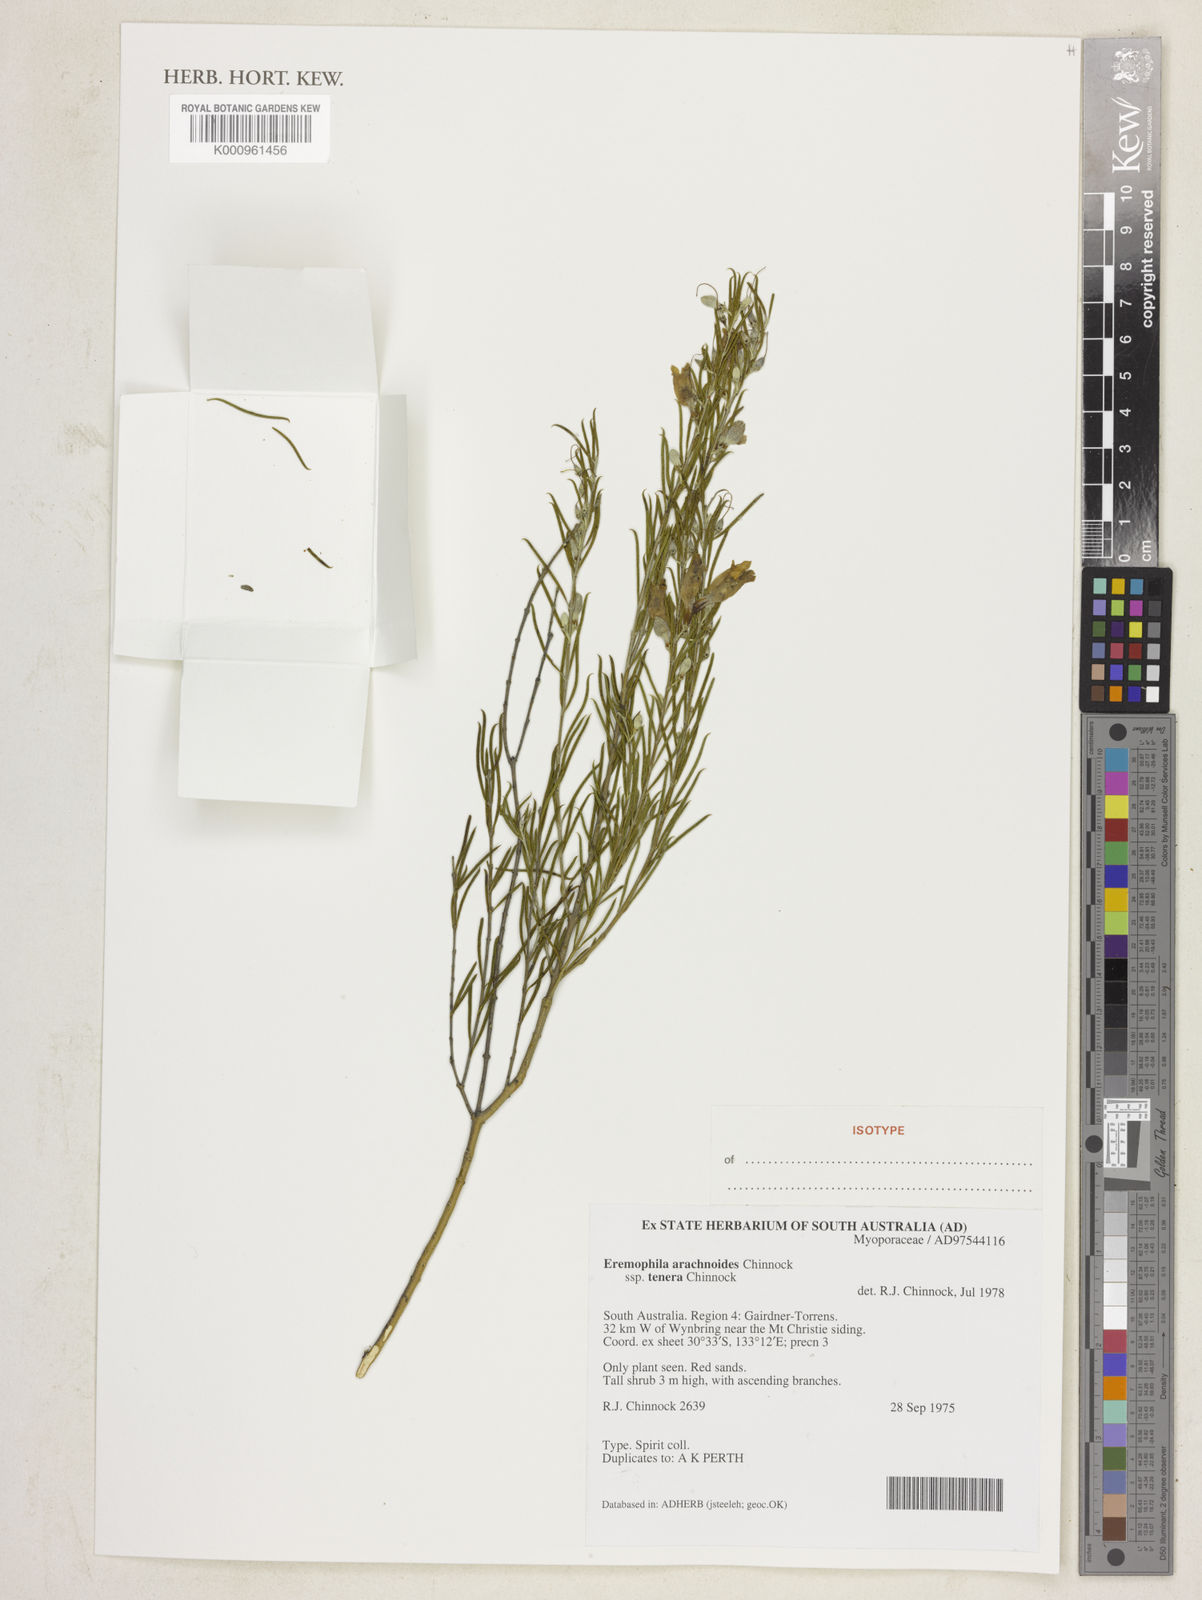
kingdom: Plantae
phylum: Tracheophyta
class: Magnoliopsida
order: Lamiales
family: Scrophulariaceae
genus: Eremophila
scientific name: Eremophila arachnoides
